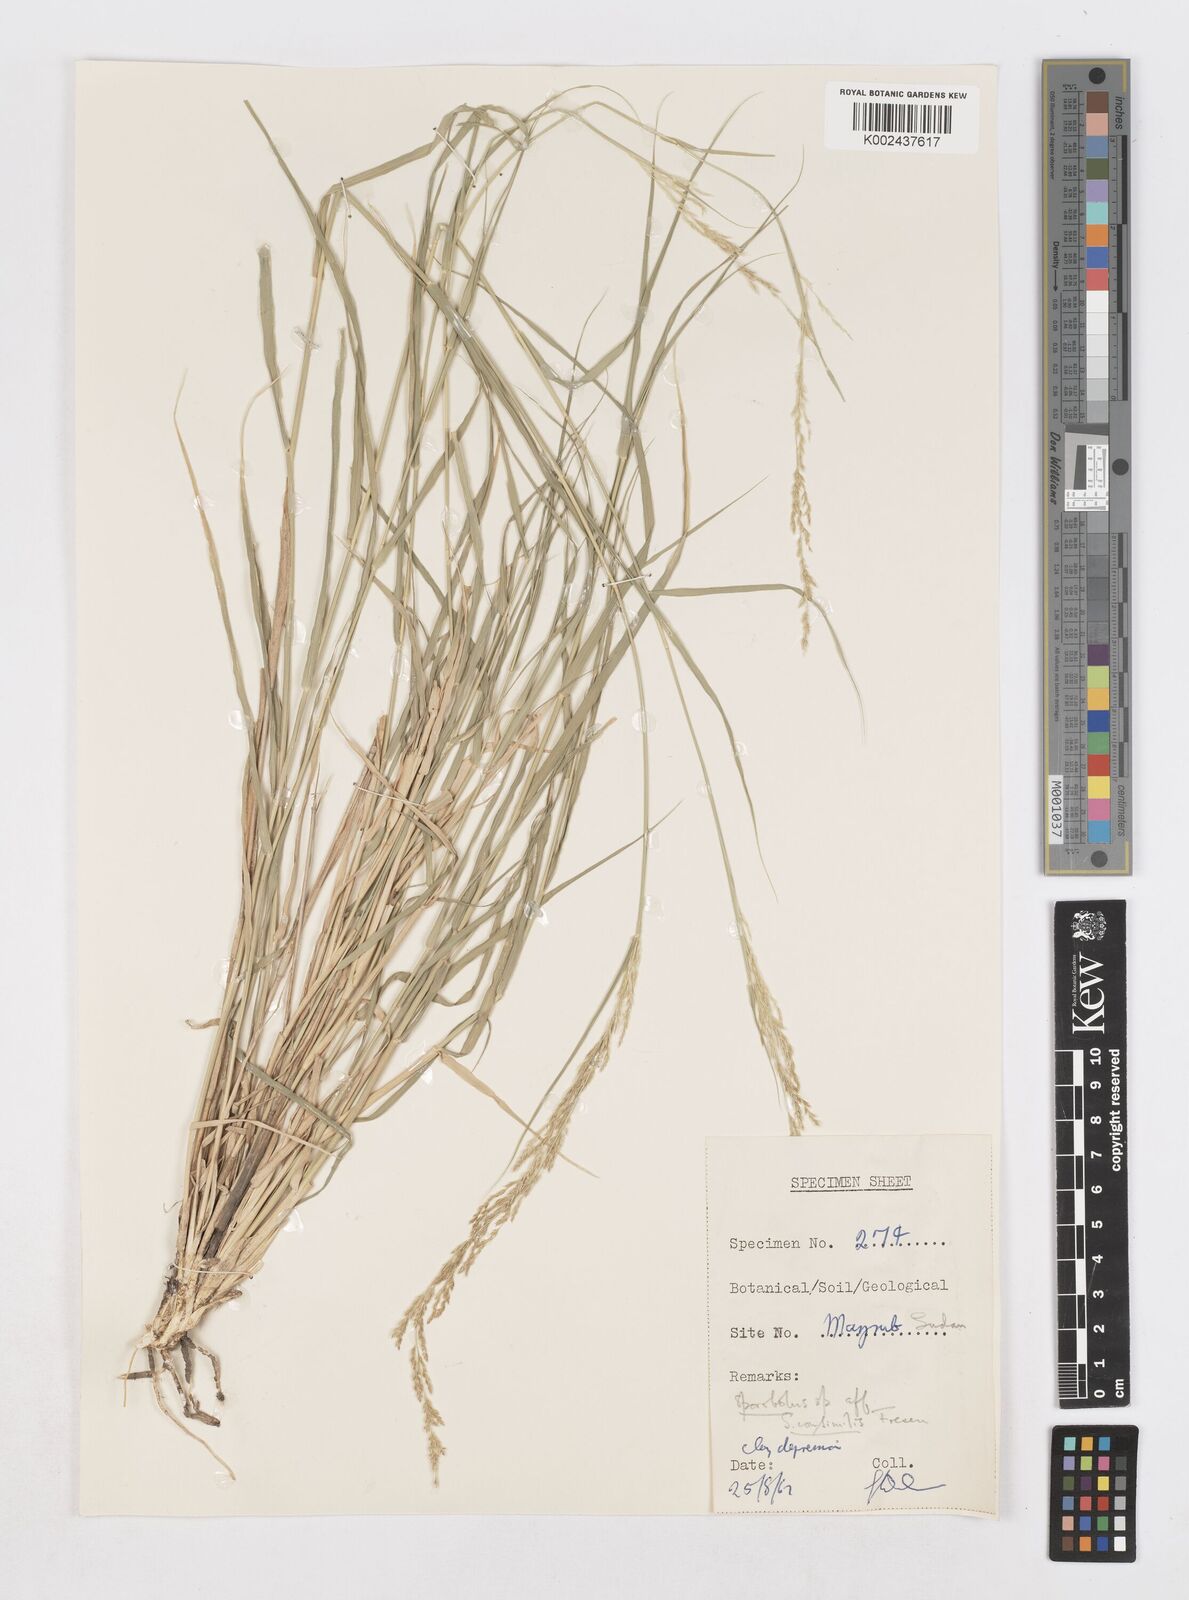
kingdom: Plantae
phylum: Tracheophyta
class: Liliopsida
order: Poales
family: Poaceae
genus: Sporobolus
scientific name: Sporobolus helvolus
